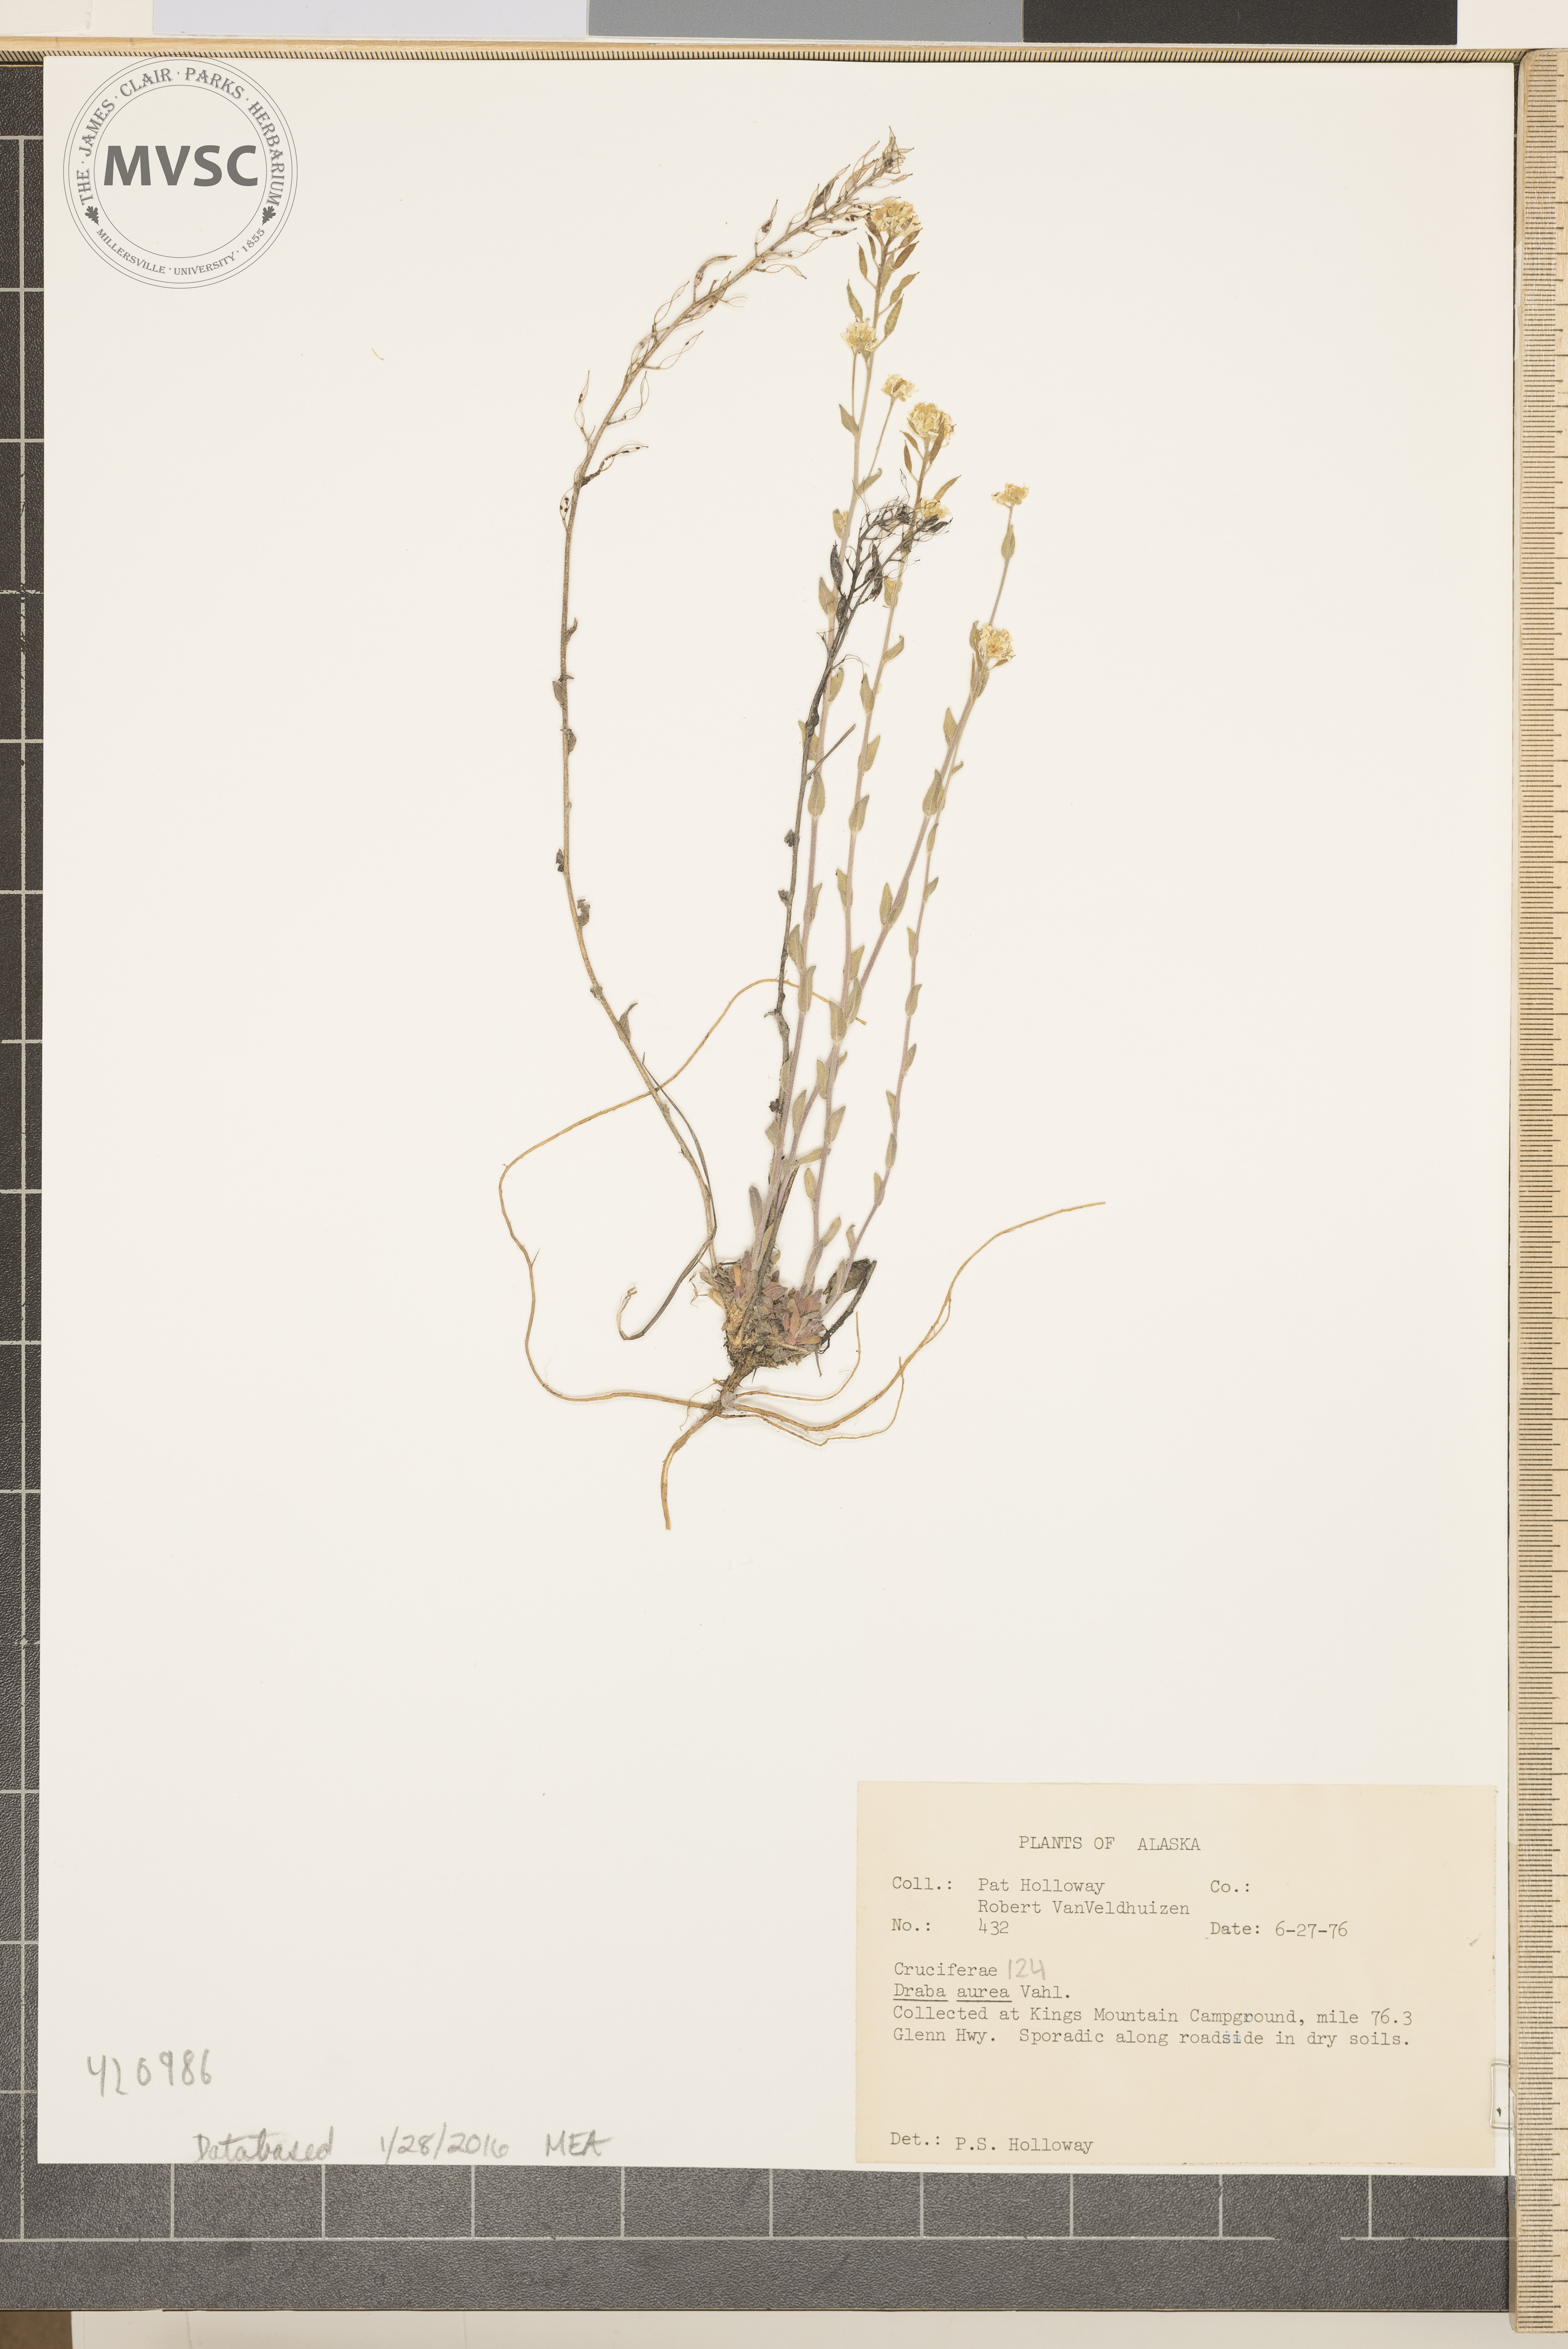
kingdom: Plantae
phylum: Tracheophyta
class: Magnoliopsida
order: Brassicales
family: Brassicaceae
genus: Draba
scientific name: Draba aurea
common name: Golden draba
